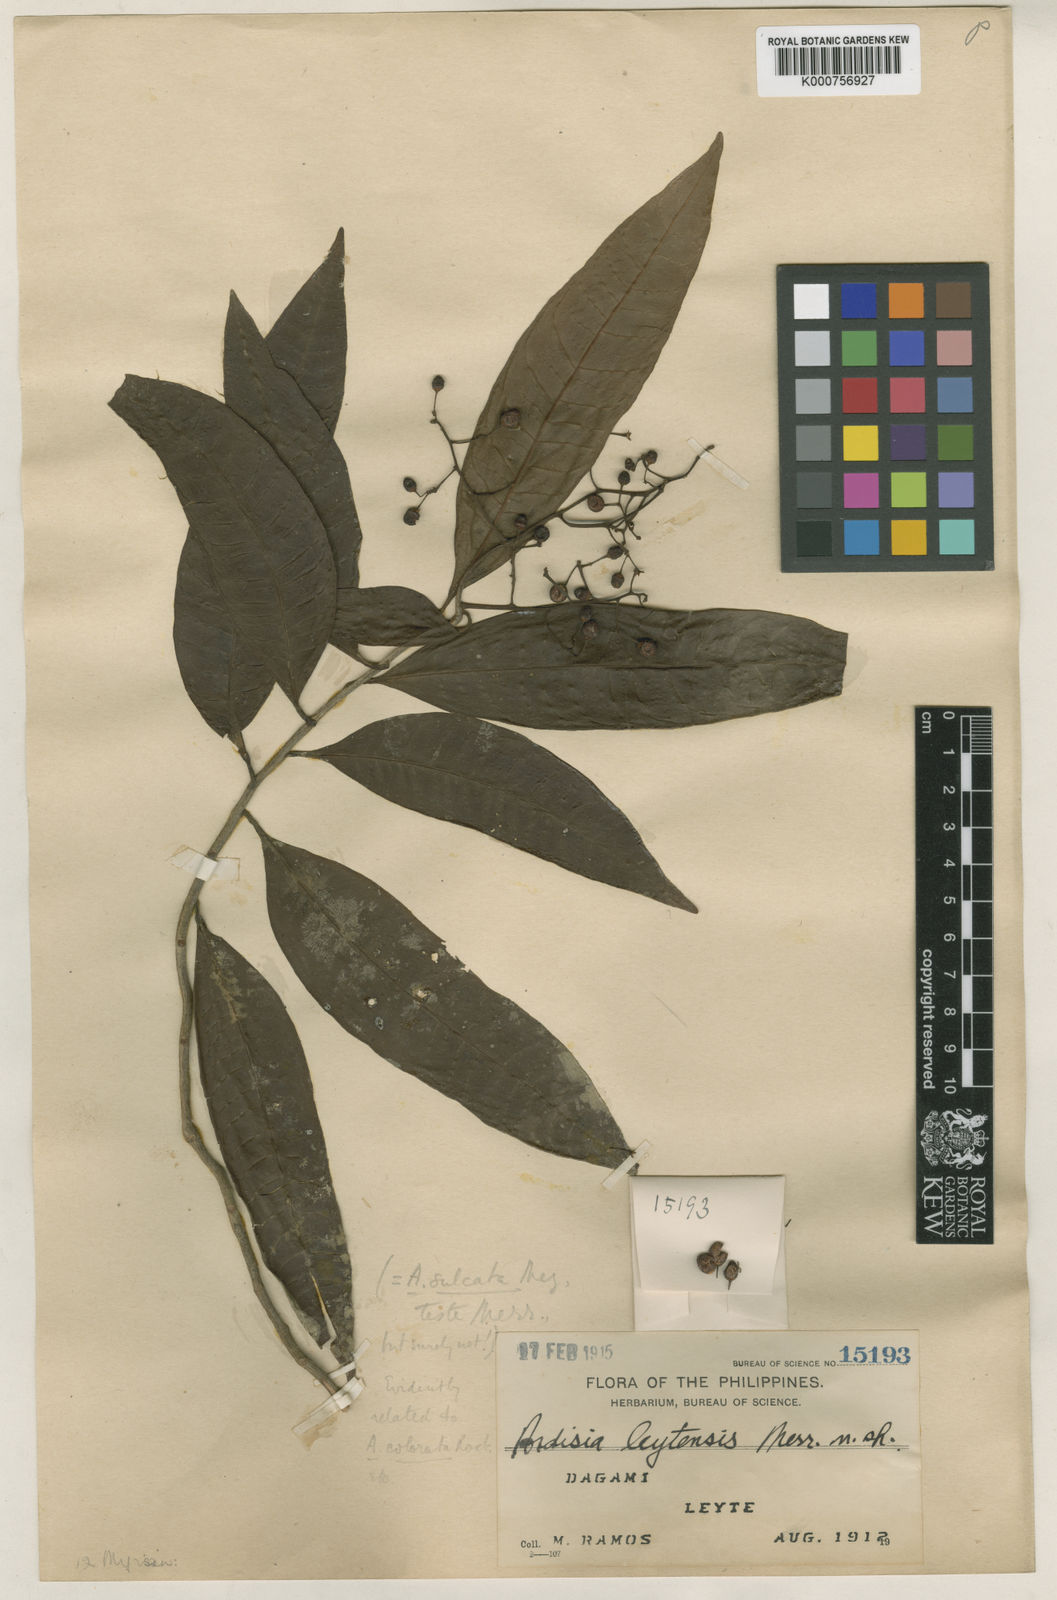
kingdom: Plantae
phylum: Tracheophyta
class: Magnoliopsida
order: Ericales
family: Primulaceae
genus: Ardisia
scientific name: Ardisia leytensis
